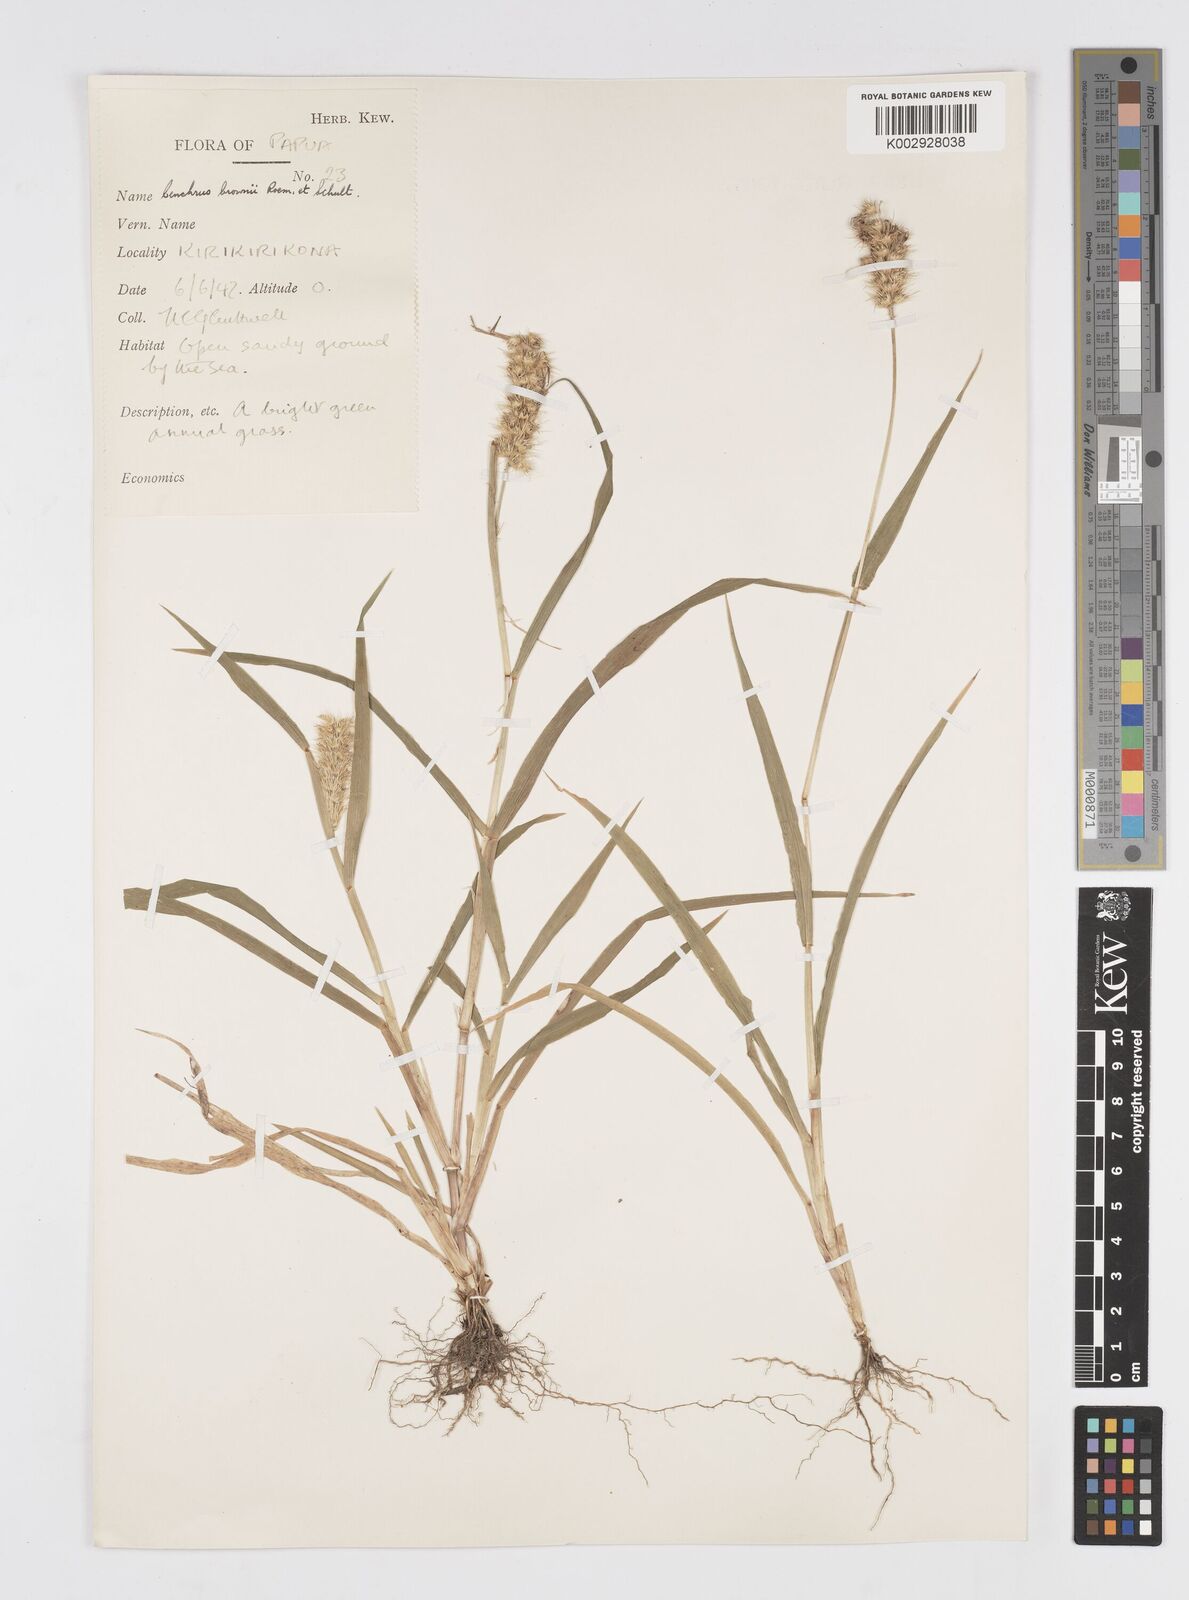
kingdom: Plantae
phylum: Tracheophyta
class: Liliopsida
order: Poales
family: Poaceae
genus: Cenchrus
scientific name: Cenchrus brownii
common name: Slim-bristle sandbur
